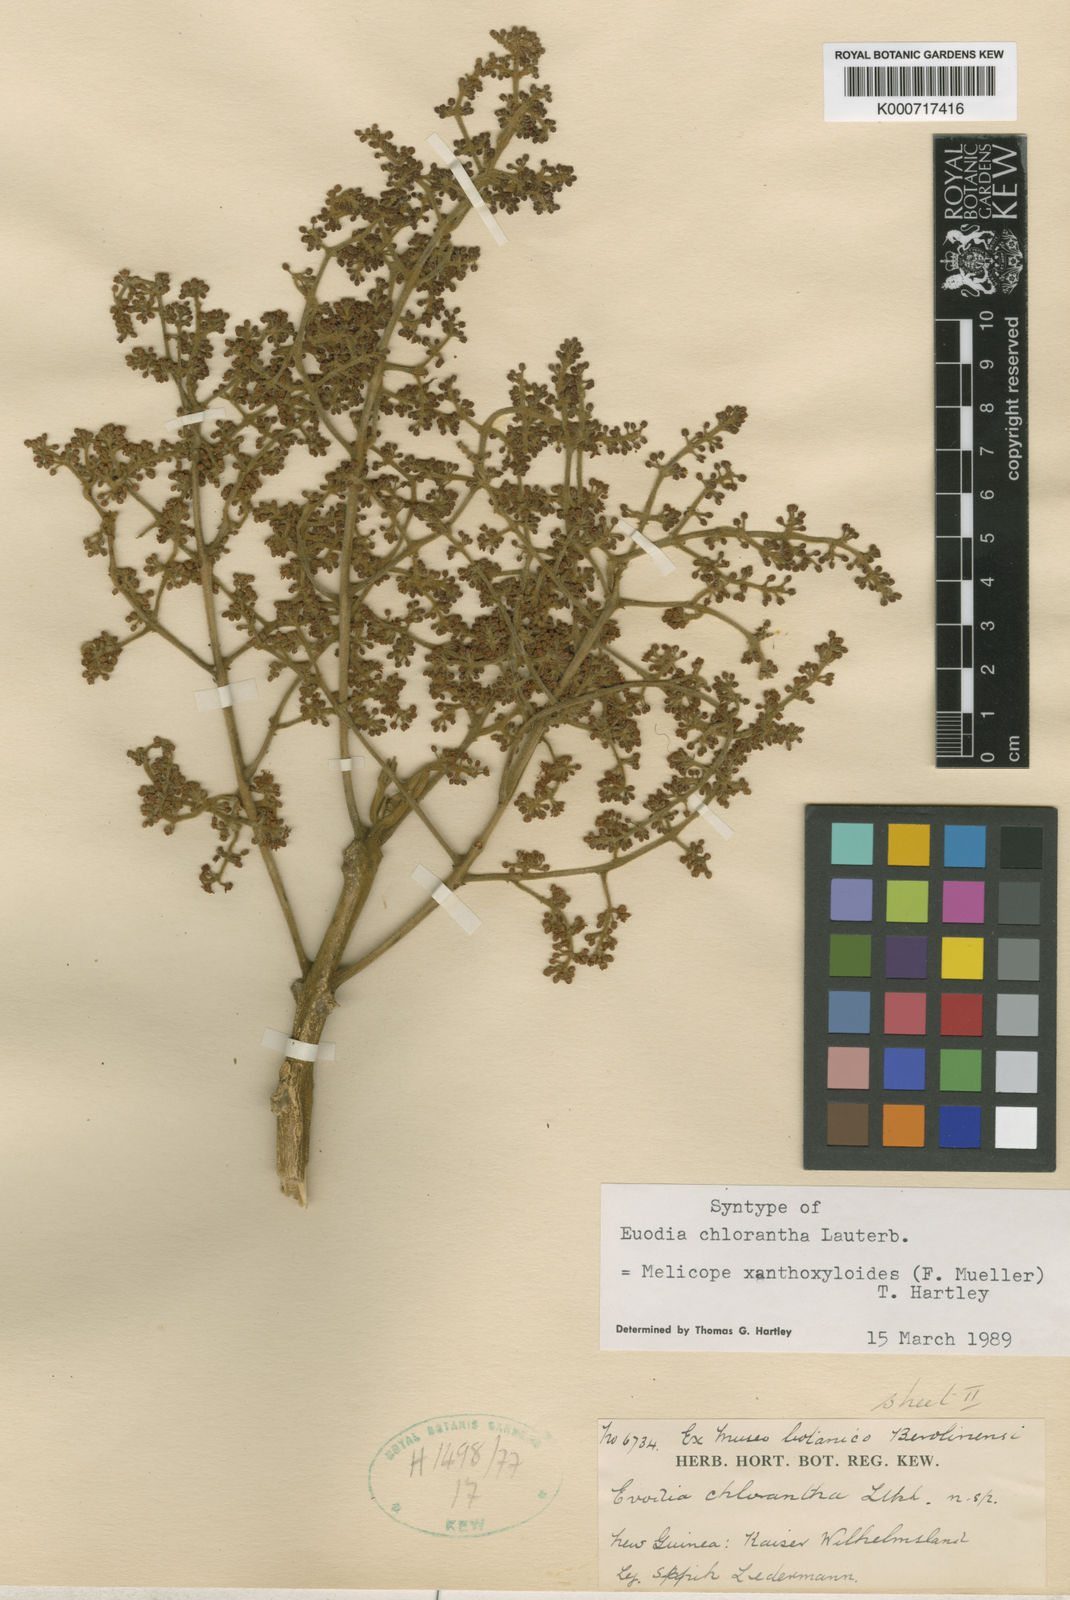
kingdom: Plantae
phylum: Tracheophyta
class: Magnoliopsida
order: Sapindales
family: Rutaceae
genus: Melicope
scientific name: Melicope xanthoxyloides
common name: Yellow evodia
